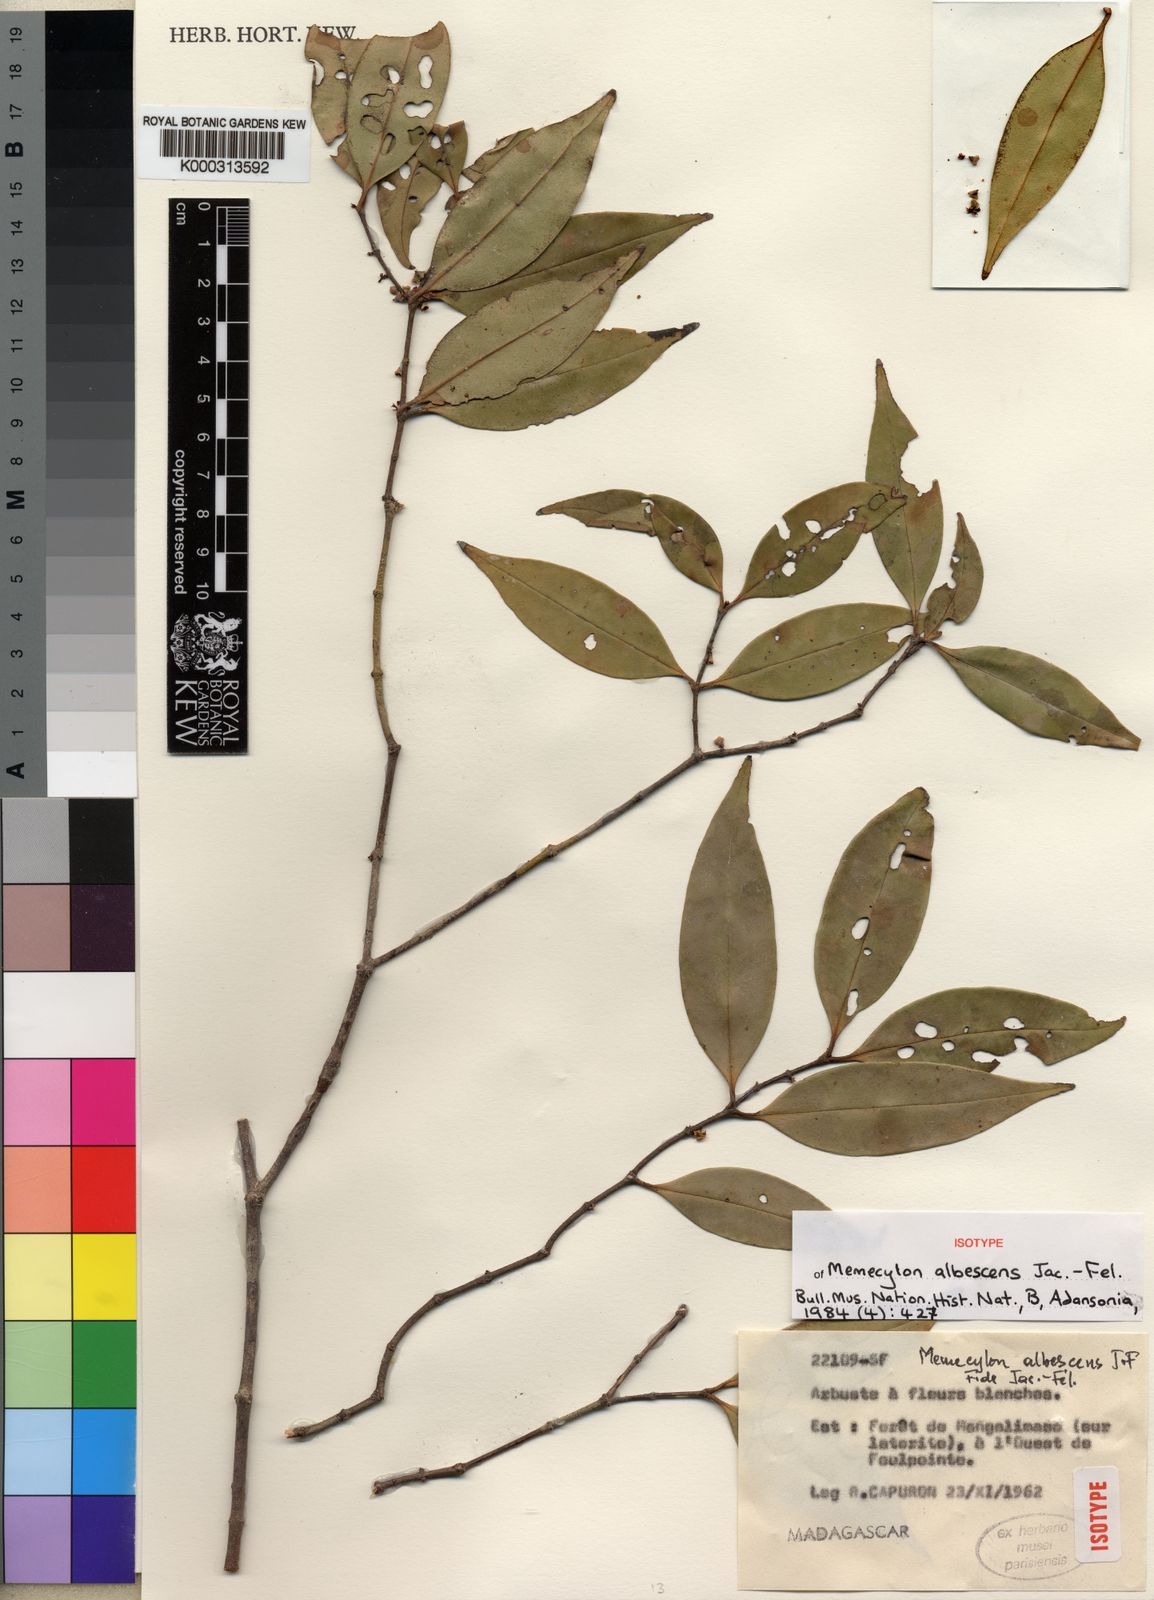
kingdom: Plantae
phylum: Tracheophyta
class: Magnoliopsida
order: Myrtales
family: Melastomataceae
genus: Memecylon
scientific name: Memecylon
